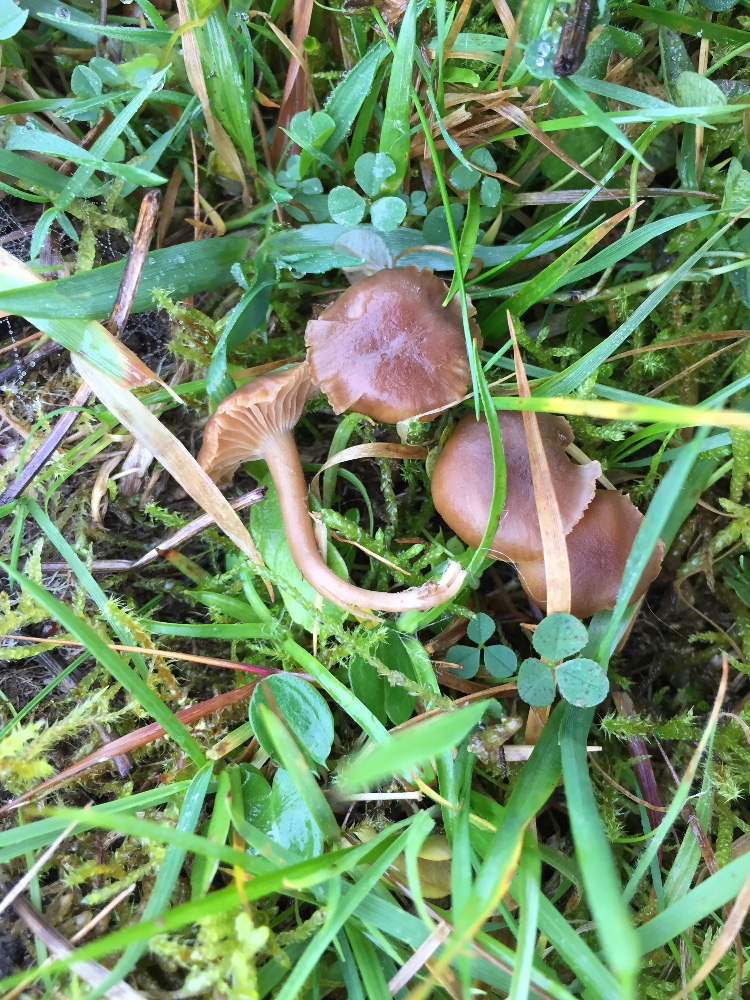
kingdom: Fungi
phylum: Basidiomycota
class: Agaricomycetes
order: Agaricales
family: Clavariaceae
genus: Camarophyllopsis
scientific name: Camarophyllopsis schulzeri
